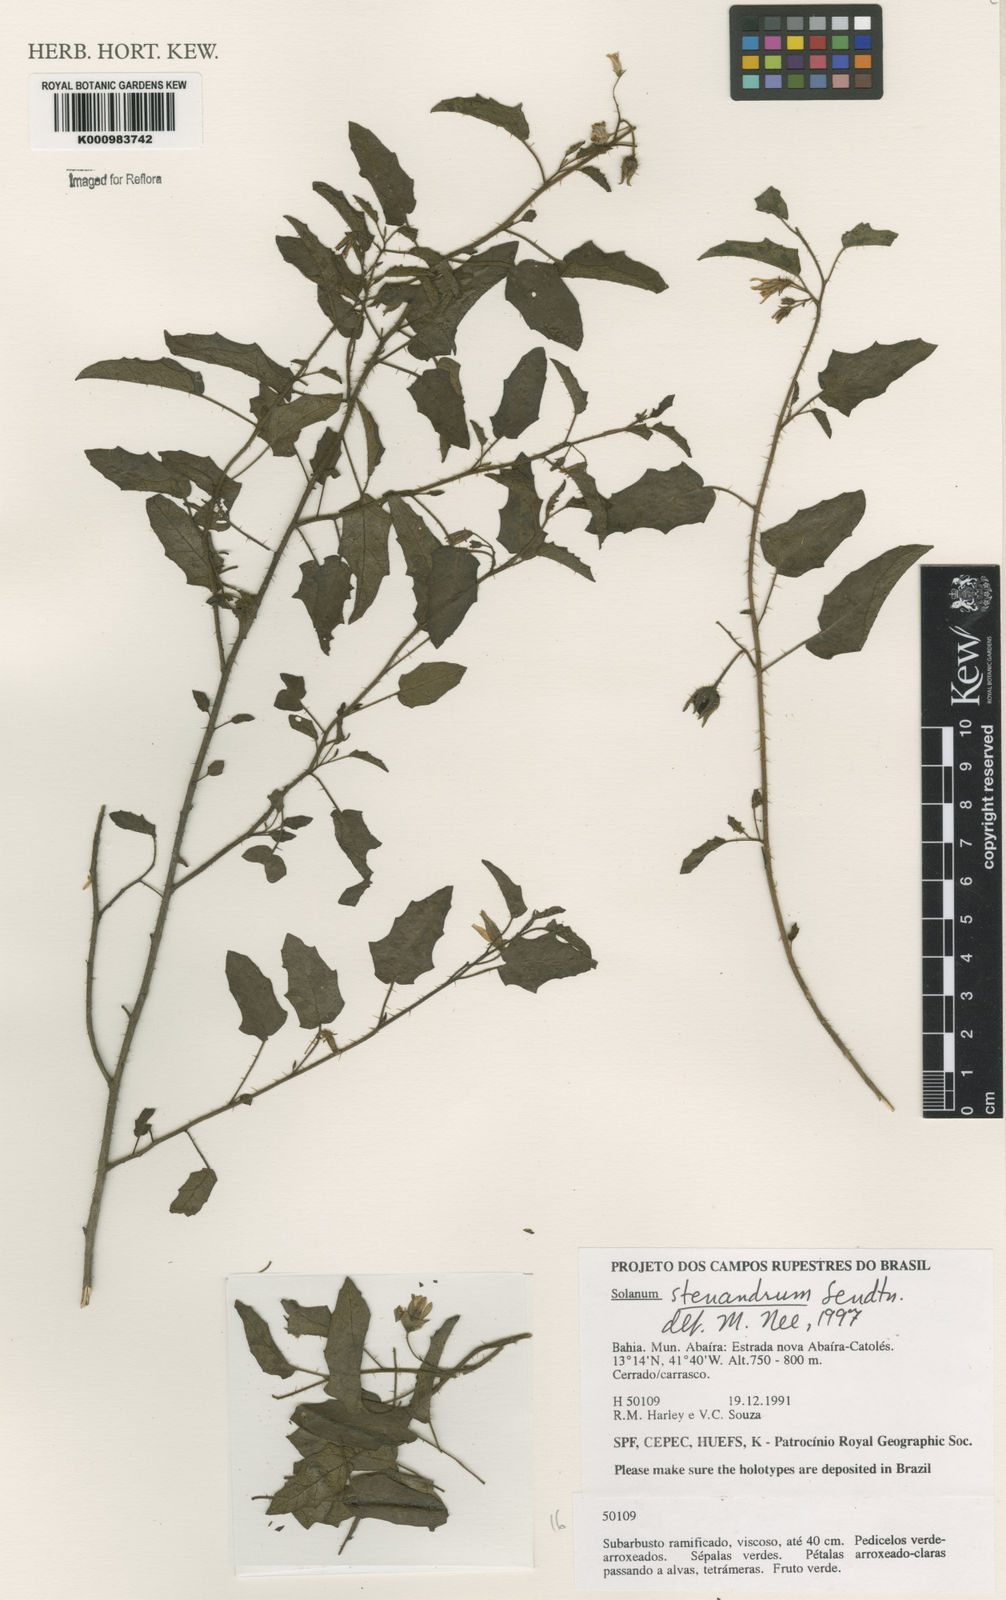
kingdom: Plantae
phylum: Tracheophyta
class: Magnoliopsida
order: Solanales
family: Solanaceae
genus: Solanum
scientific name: Solanum stenandrum
